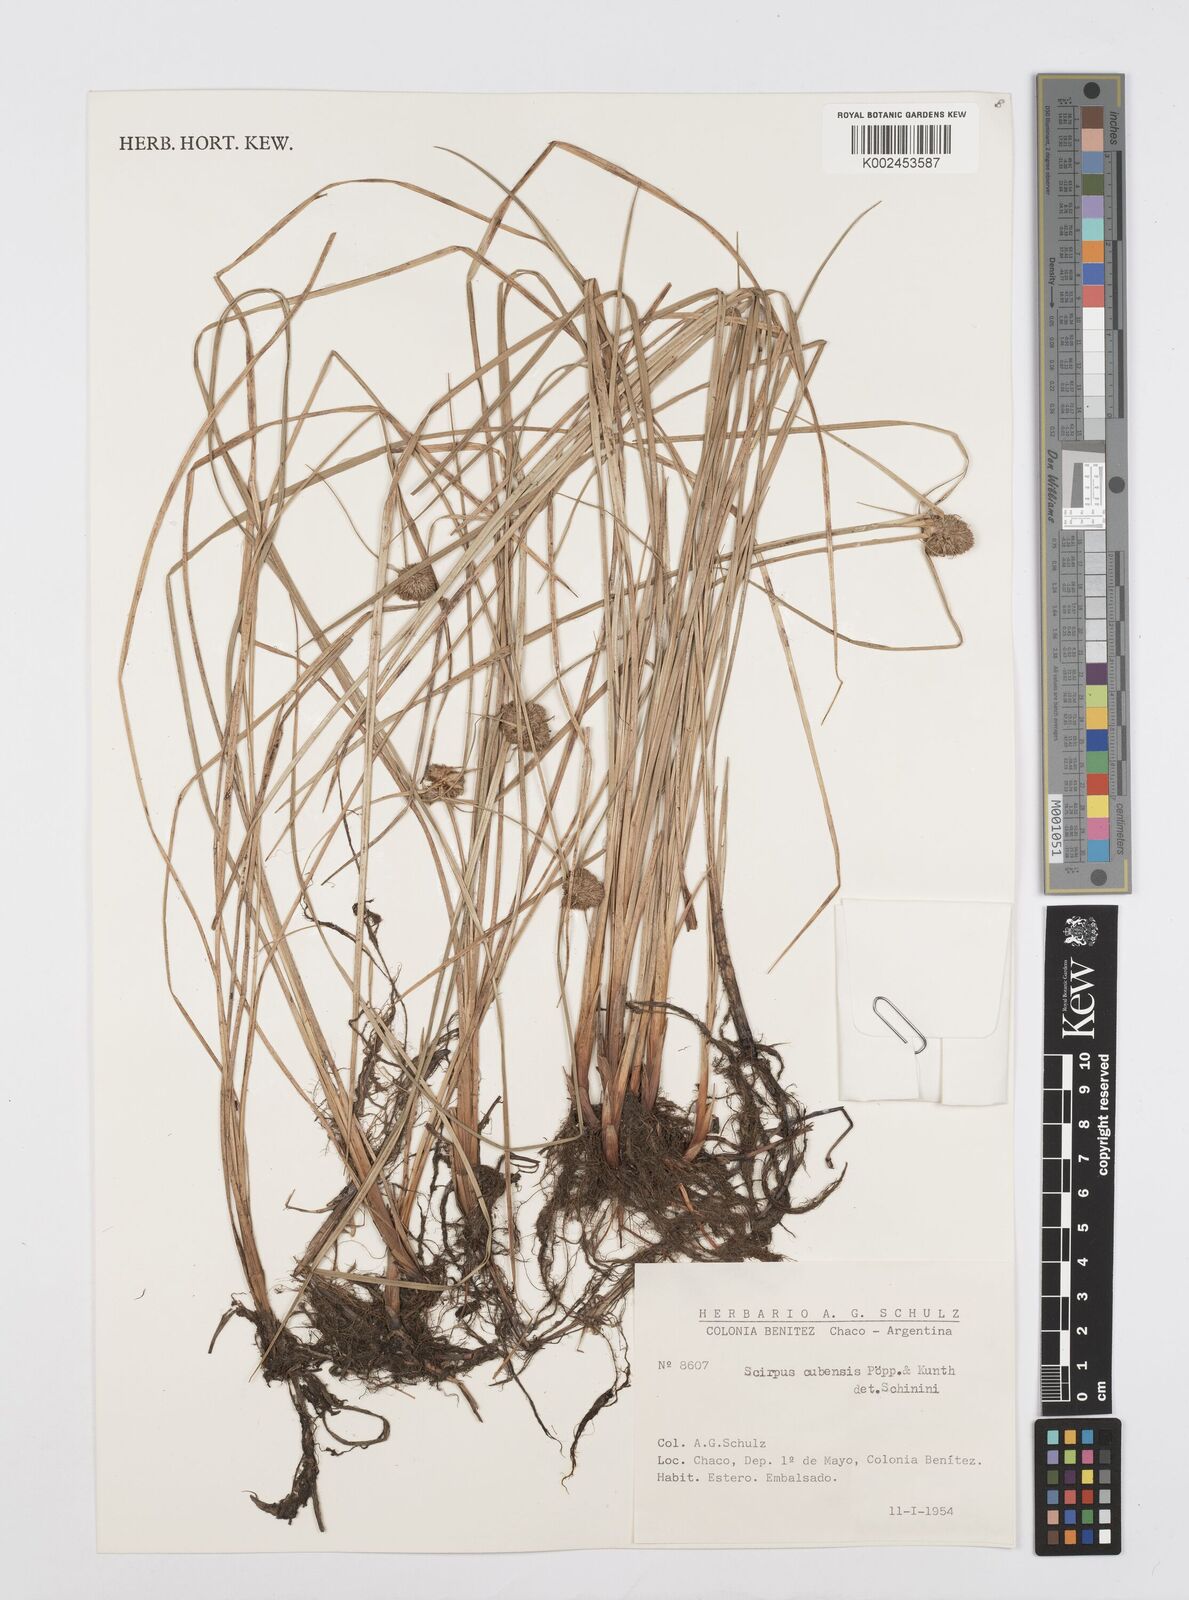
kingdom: Plantae
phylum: Tracheophyta
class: Liliopsida
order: Poales
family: Cyperaceae
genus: Cyperus
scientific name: Cyperus elegans
